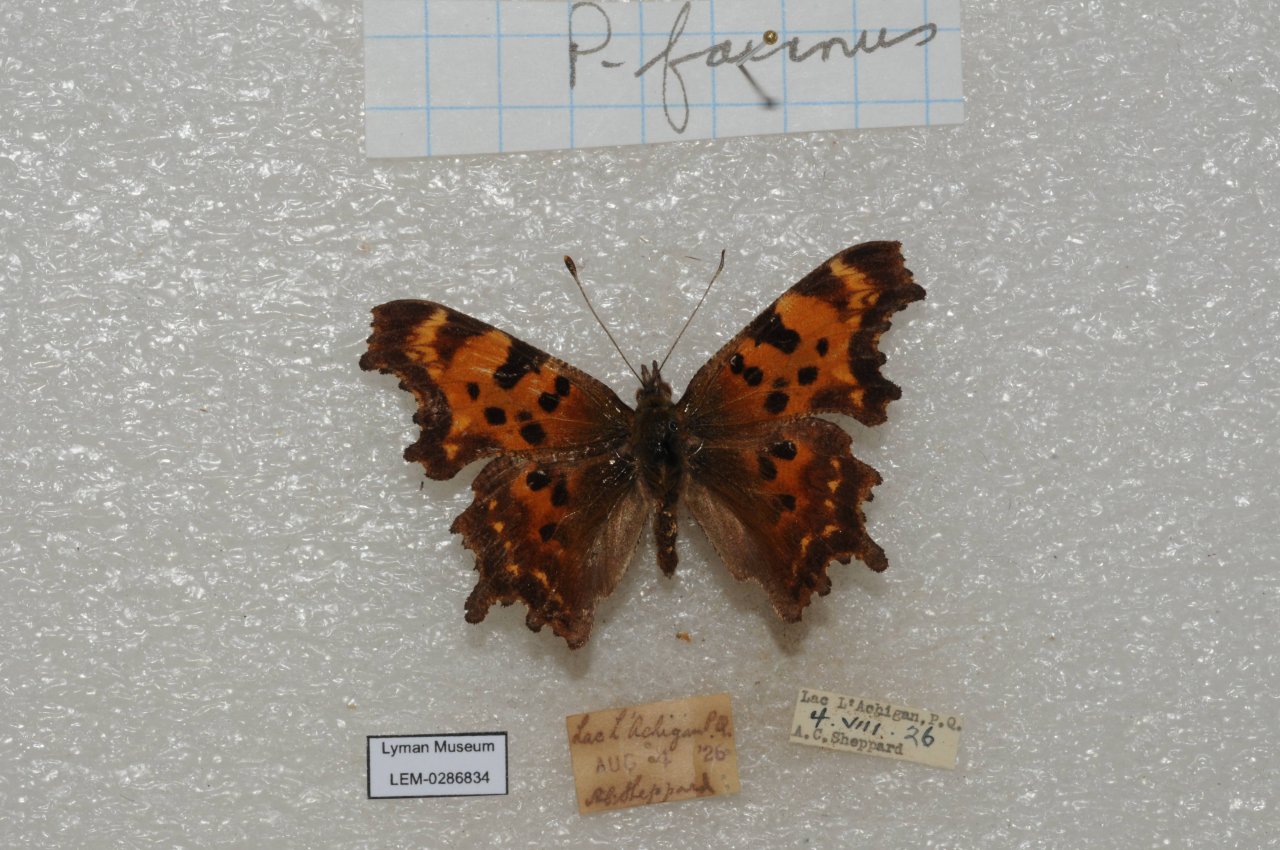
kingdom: Animalia
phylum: Arthropoda
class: Insecta
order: Lepidoptera
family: Nymphalidae
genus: Polygonia
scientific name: Polygonia faunus
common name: Green Comma
